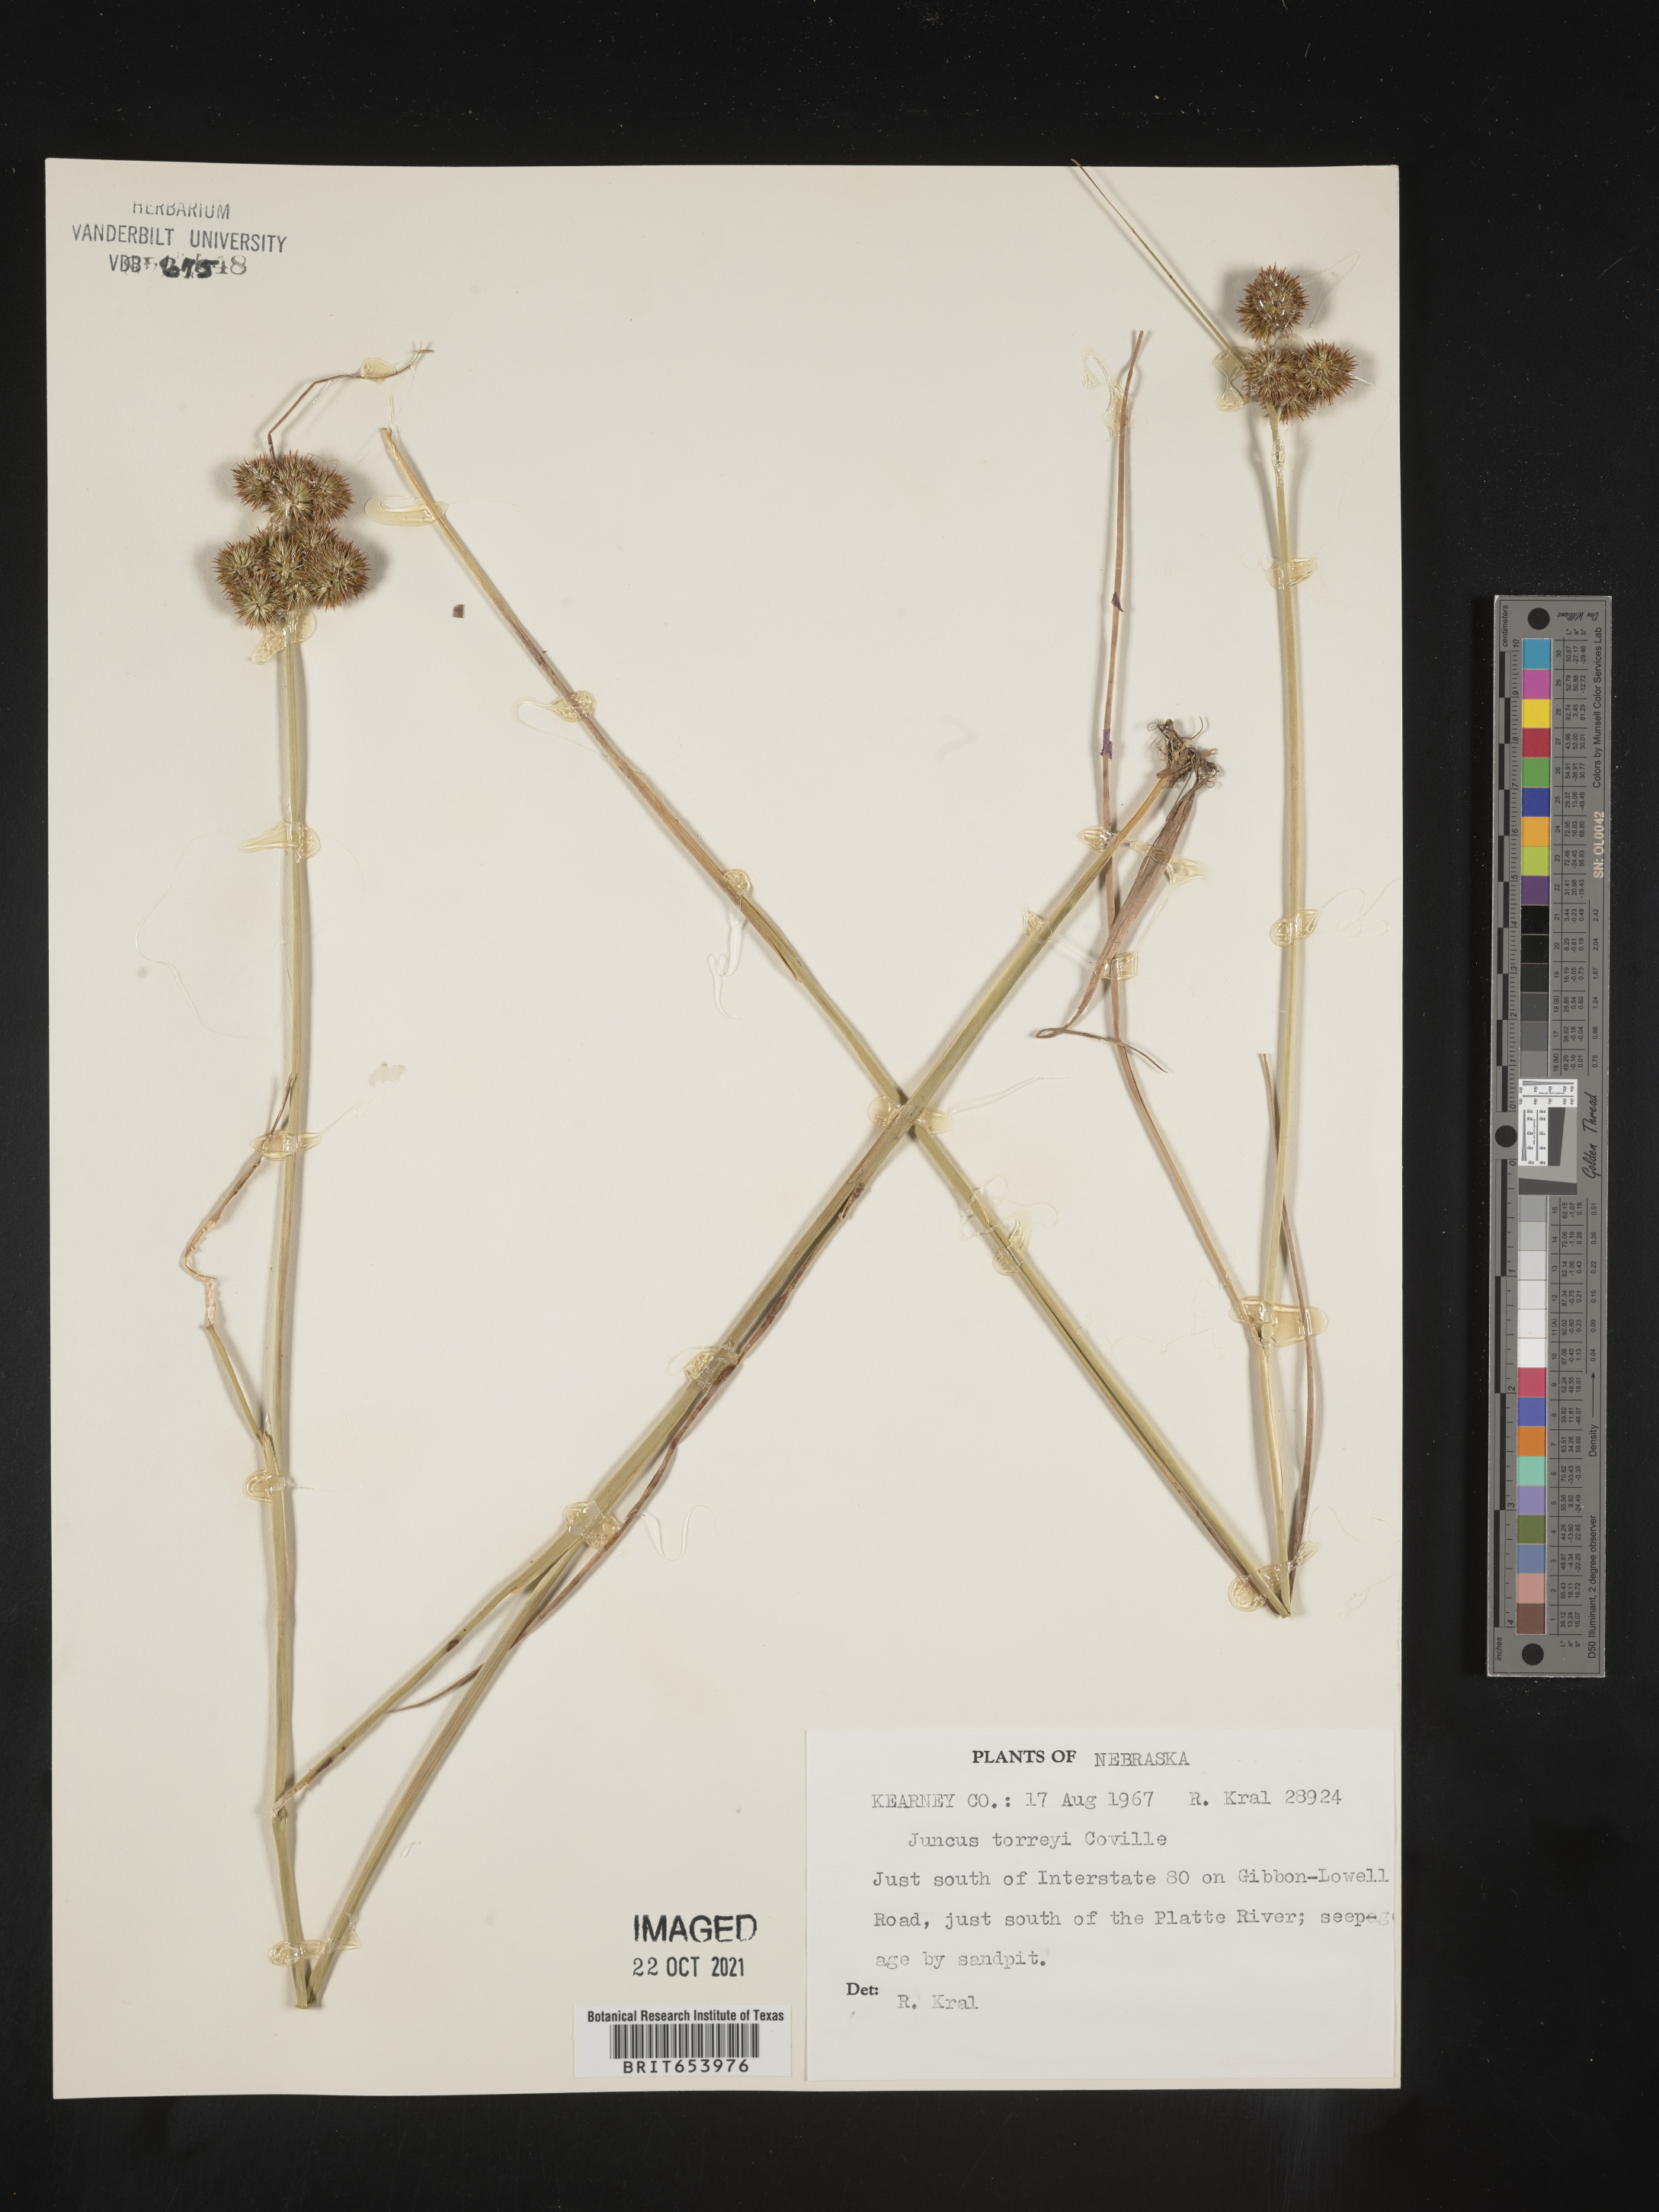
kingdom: Plantae
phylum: Tracheophyta
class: Liliopsida
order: Poales
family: Juncaceae
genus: Juncus
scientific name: Juncus torreyi
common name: Torrey's rush
